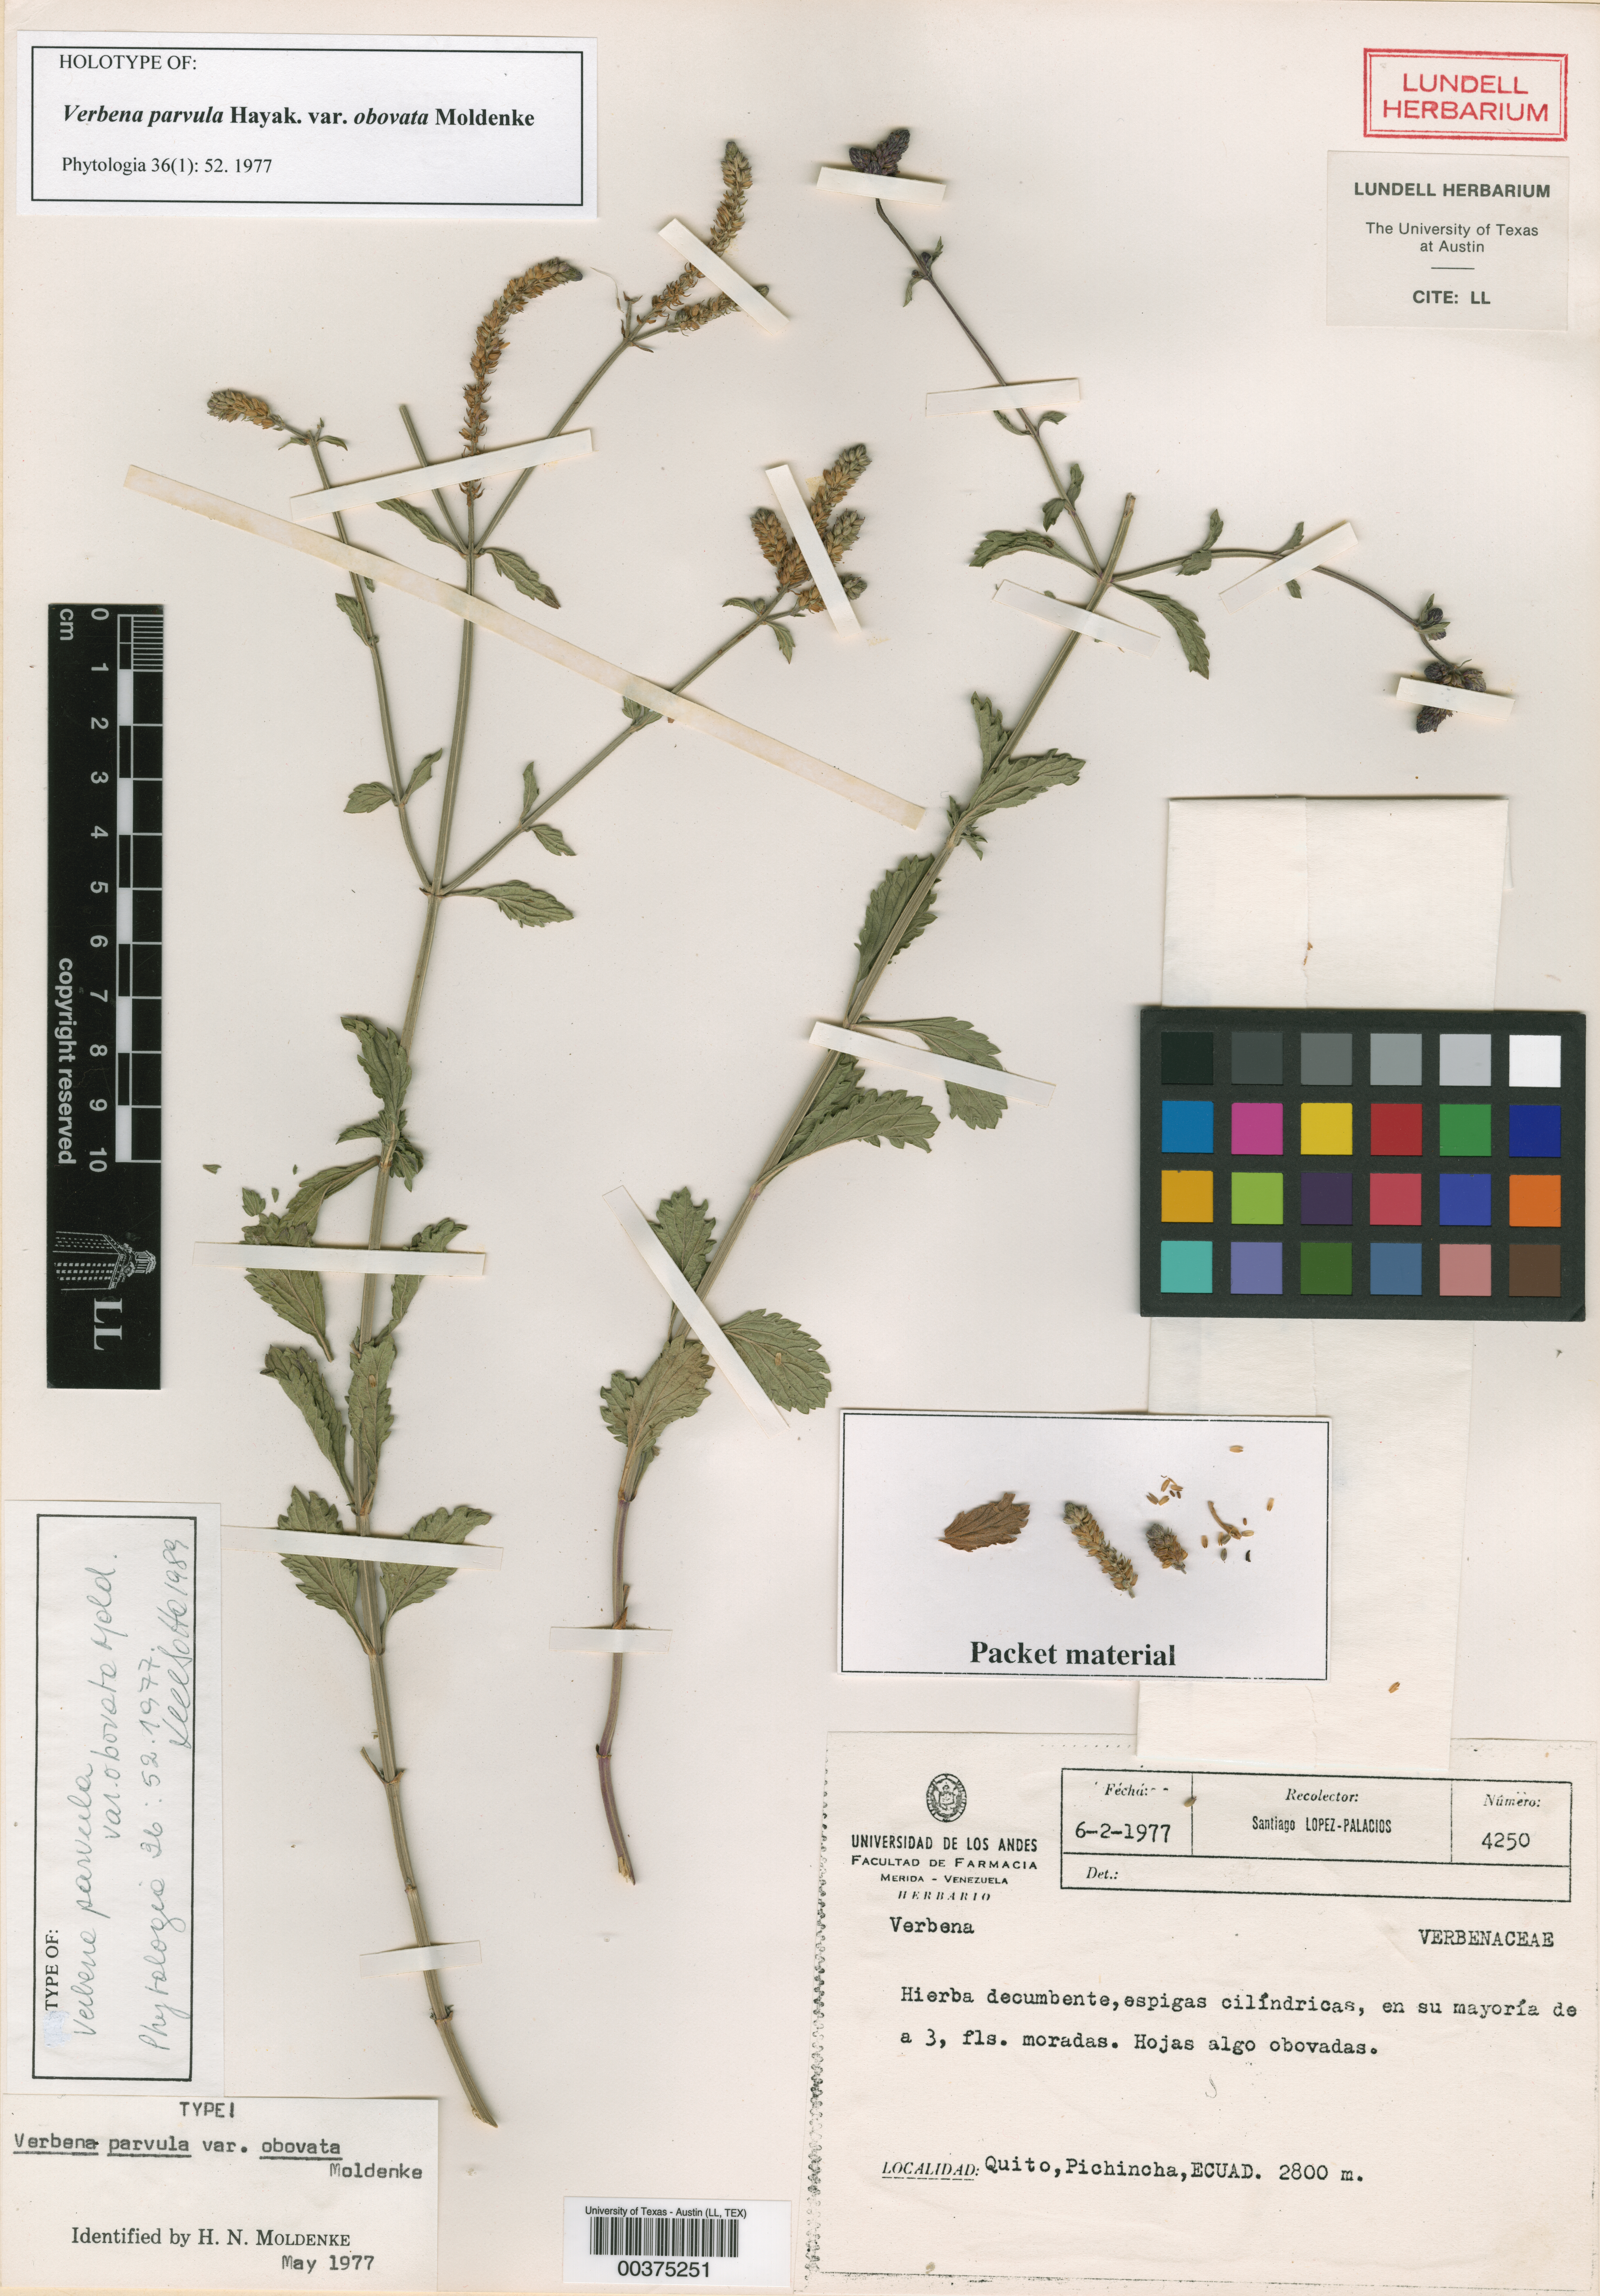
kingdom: Plantae
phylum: Tracheophyta
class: Magnoliopsida
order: Malpighiales
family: Hypericaceae
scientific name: Hypericaceae
